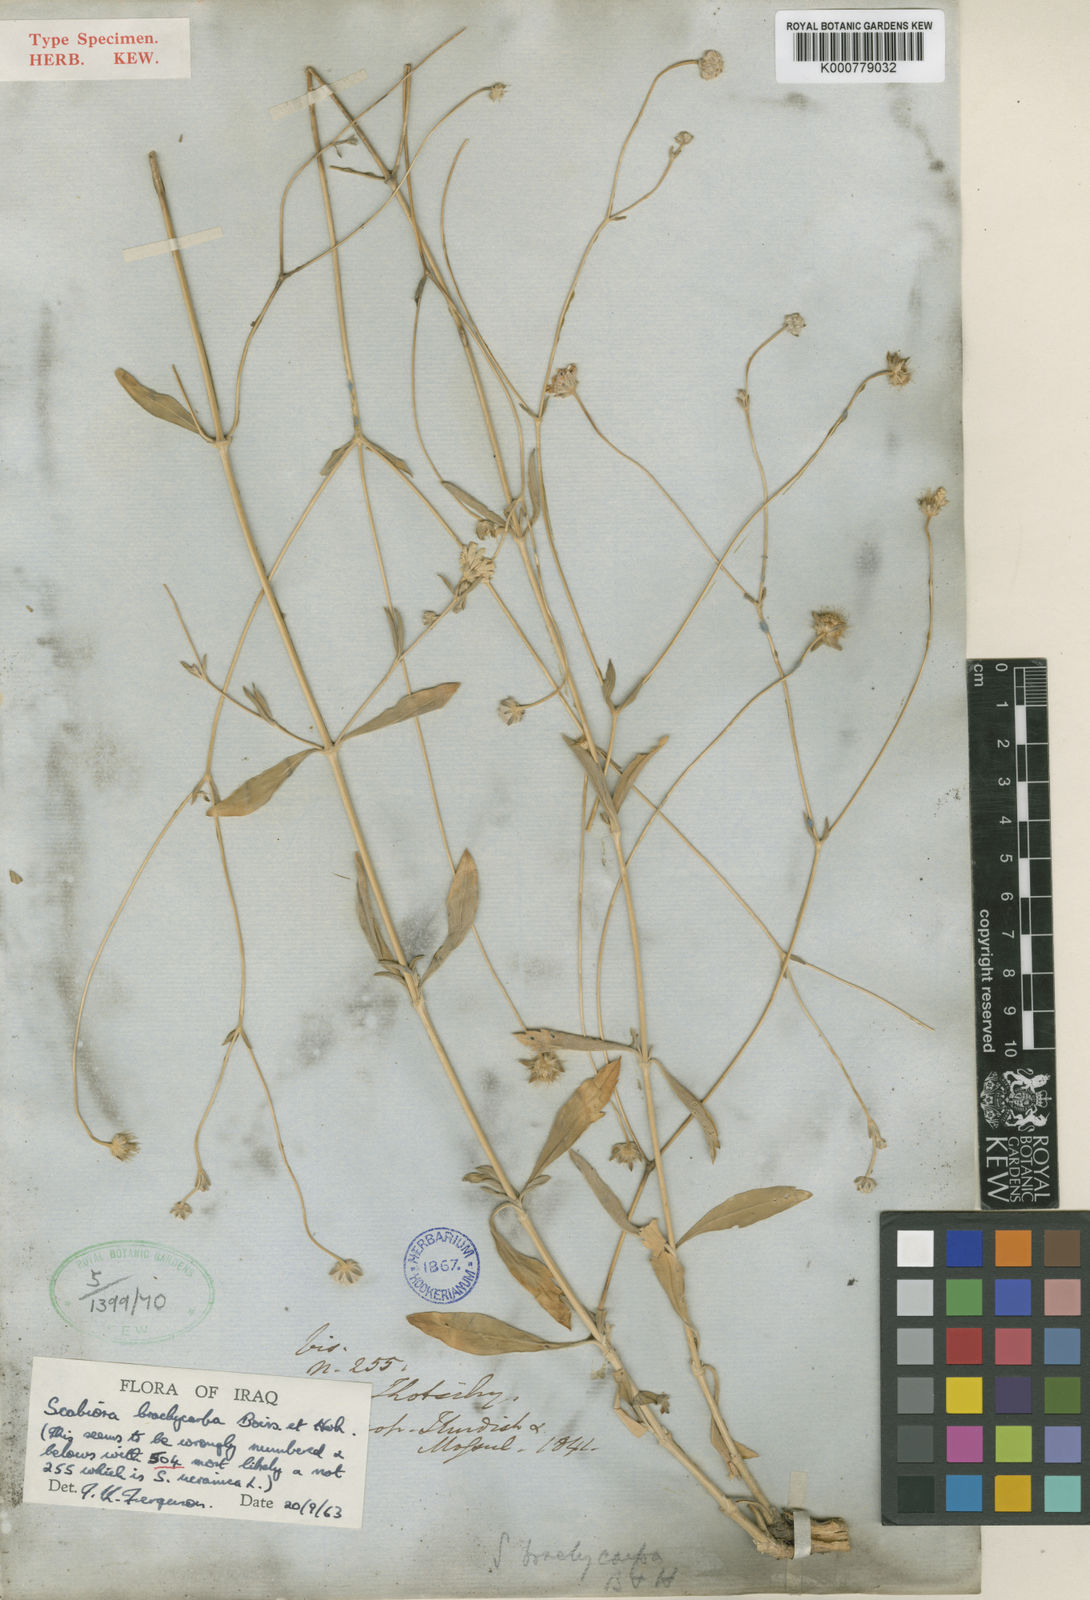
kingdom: Plantae
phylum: Tracheophyta
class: Magnoliopsida
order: Dipsacales
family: Caprifoliaceae
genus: Lomelosia
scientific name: Lomelosia brachycarpa
